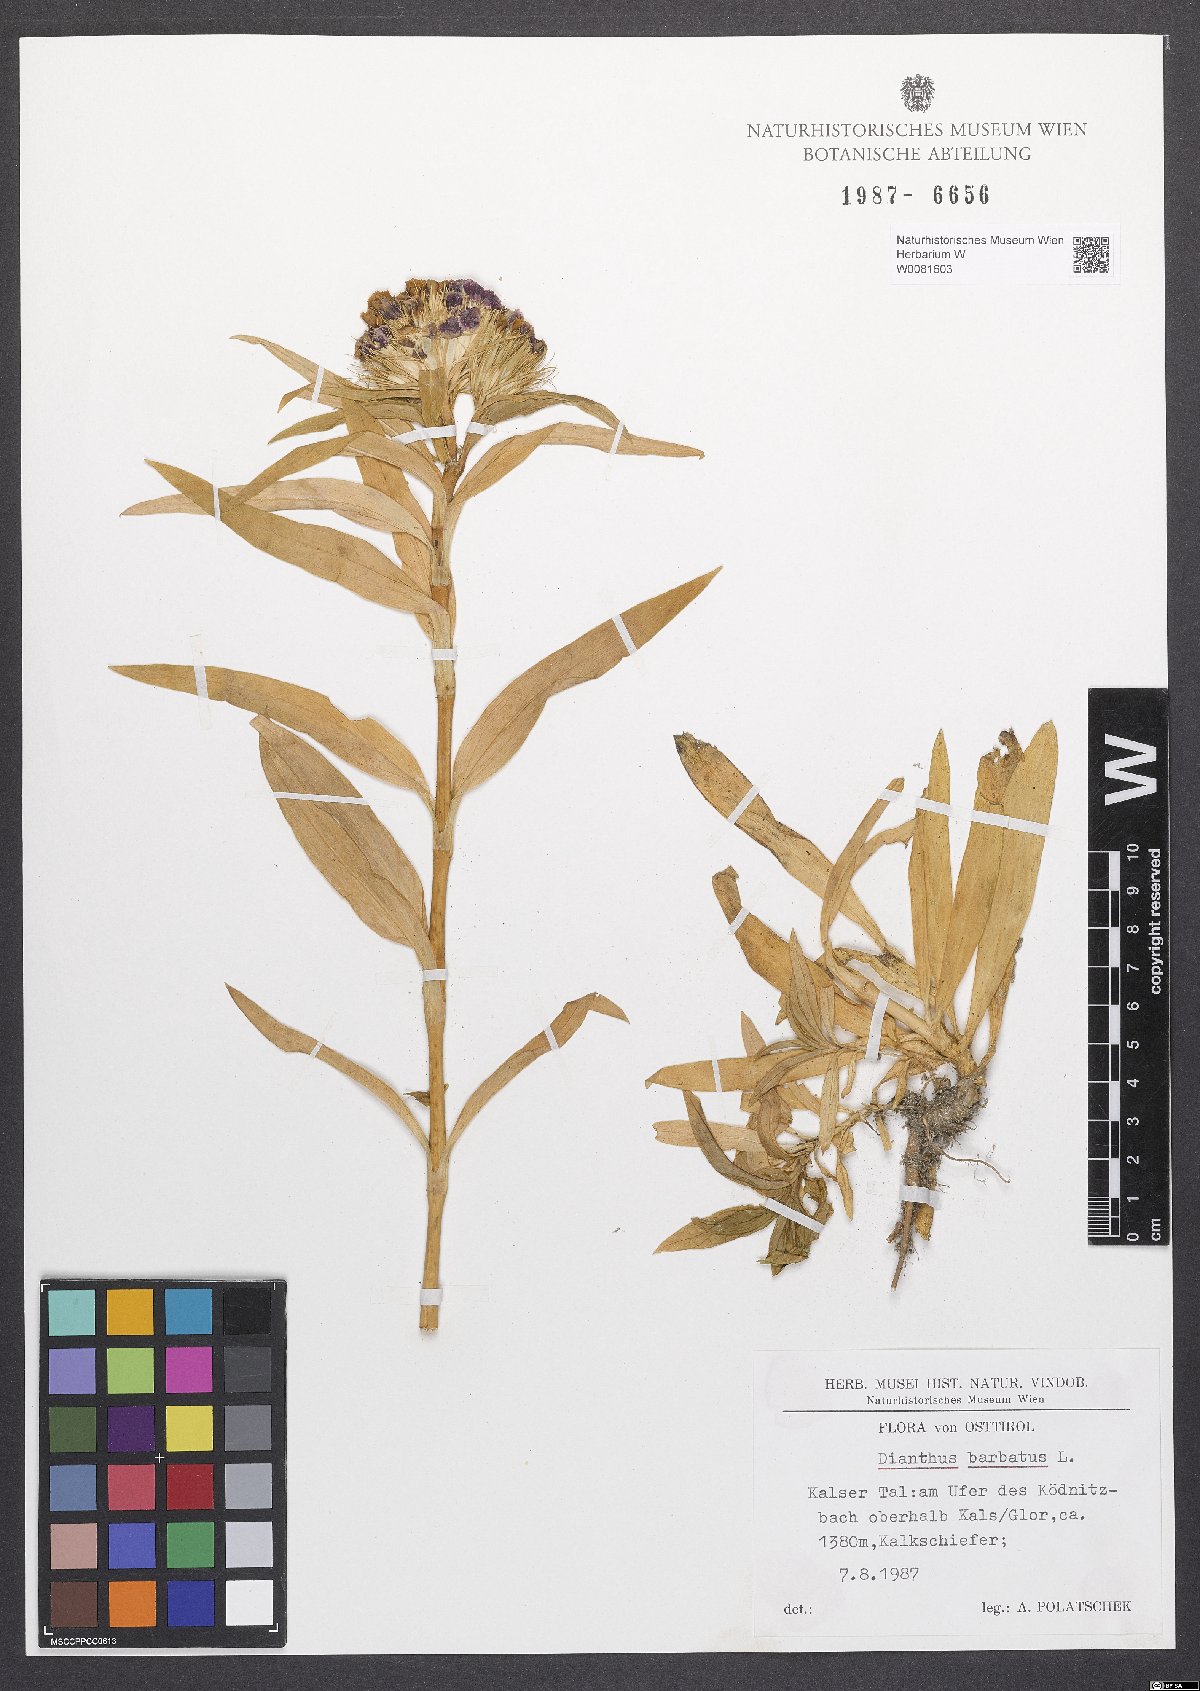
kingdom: Plantae
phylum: Tracheophyta
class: Magnoliopsida
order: Caryophyllales
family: Caryophyllaceae
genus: Dianthus
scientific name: Dianthus barbatus
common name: Sweet-william
